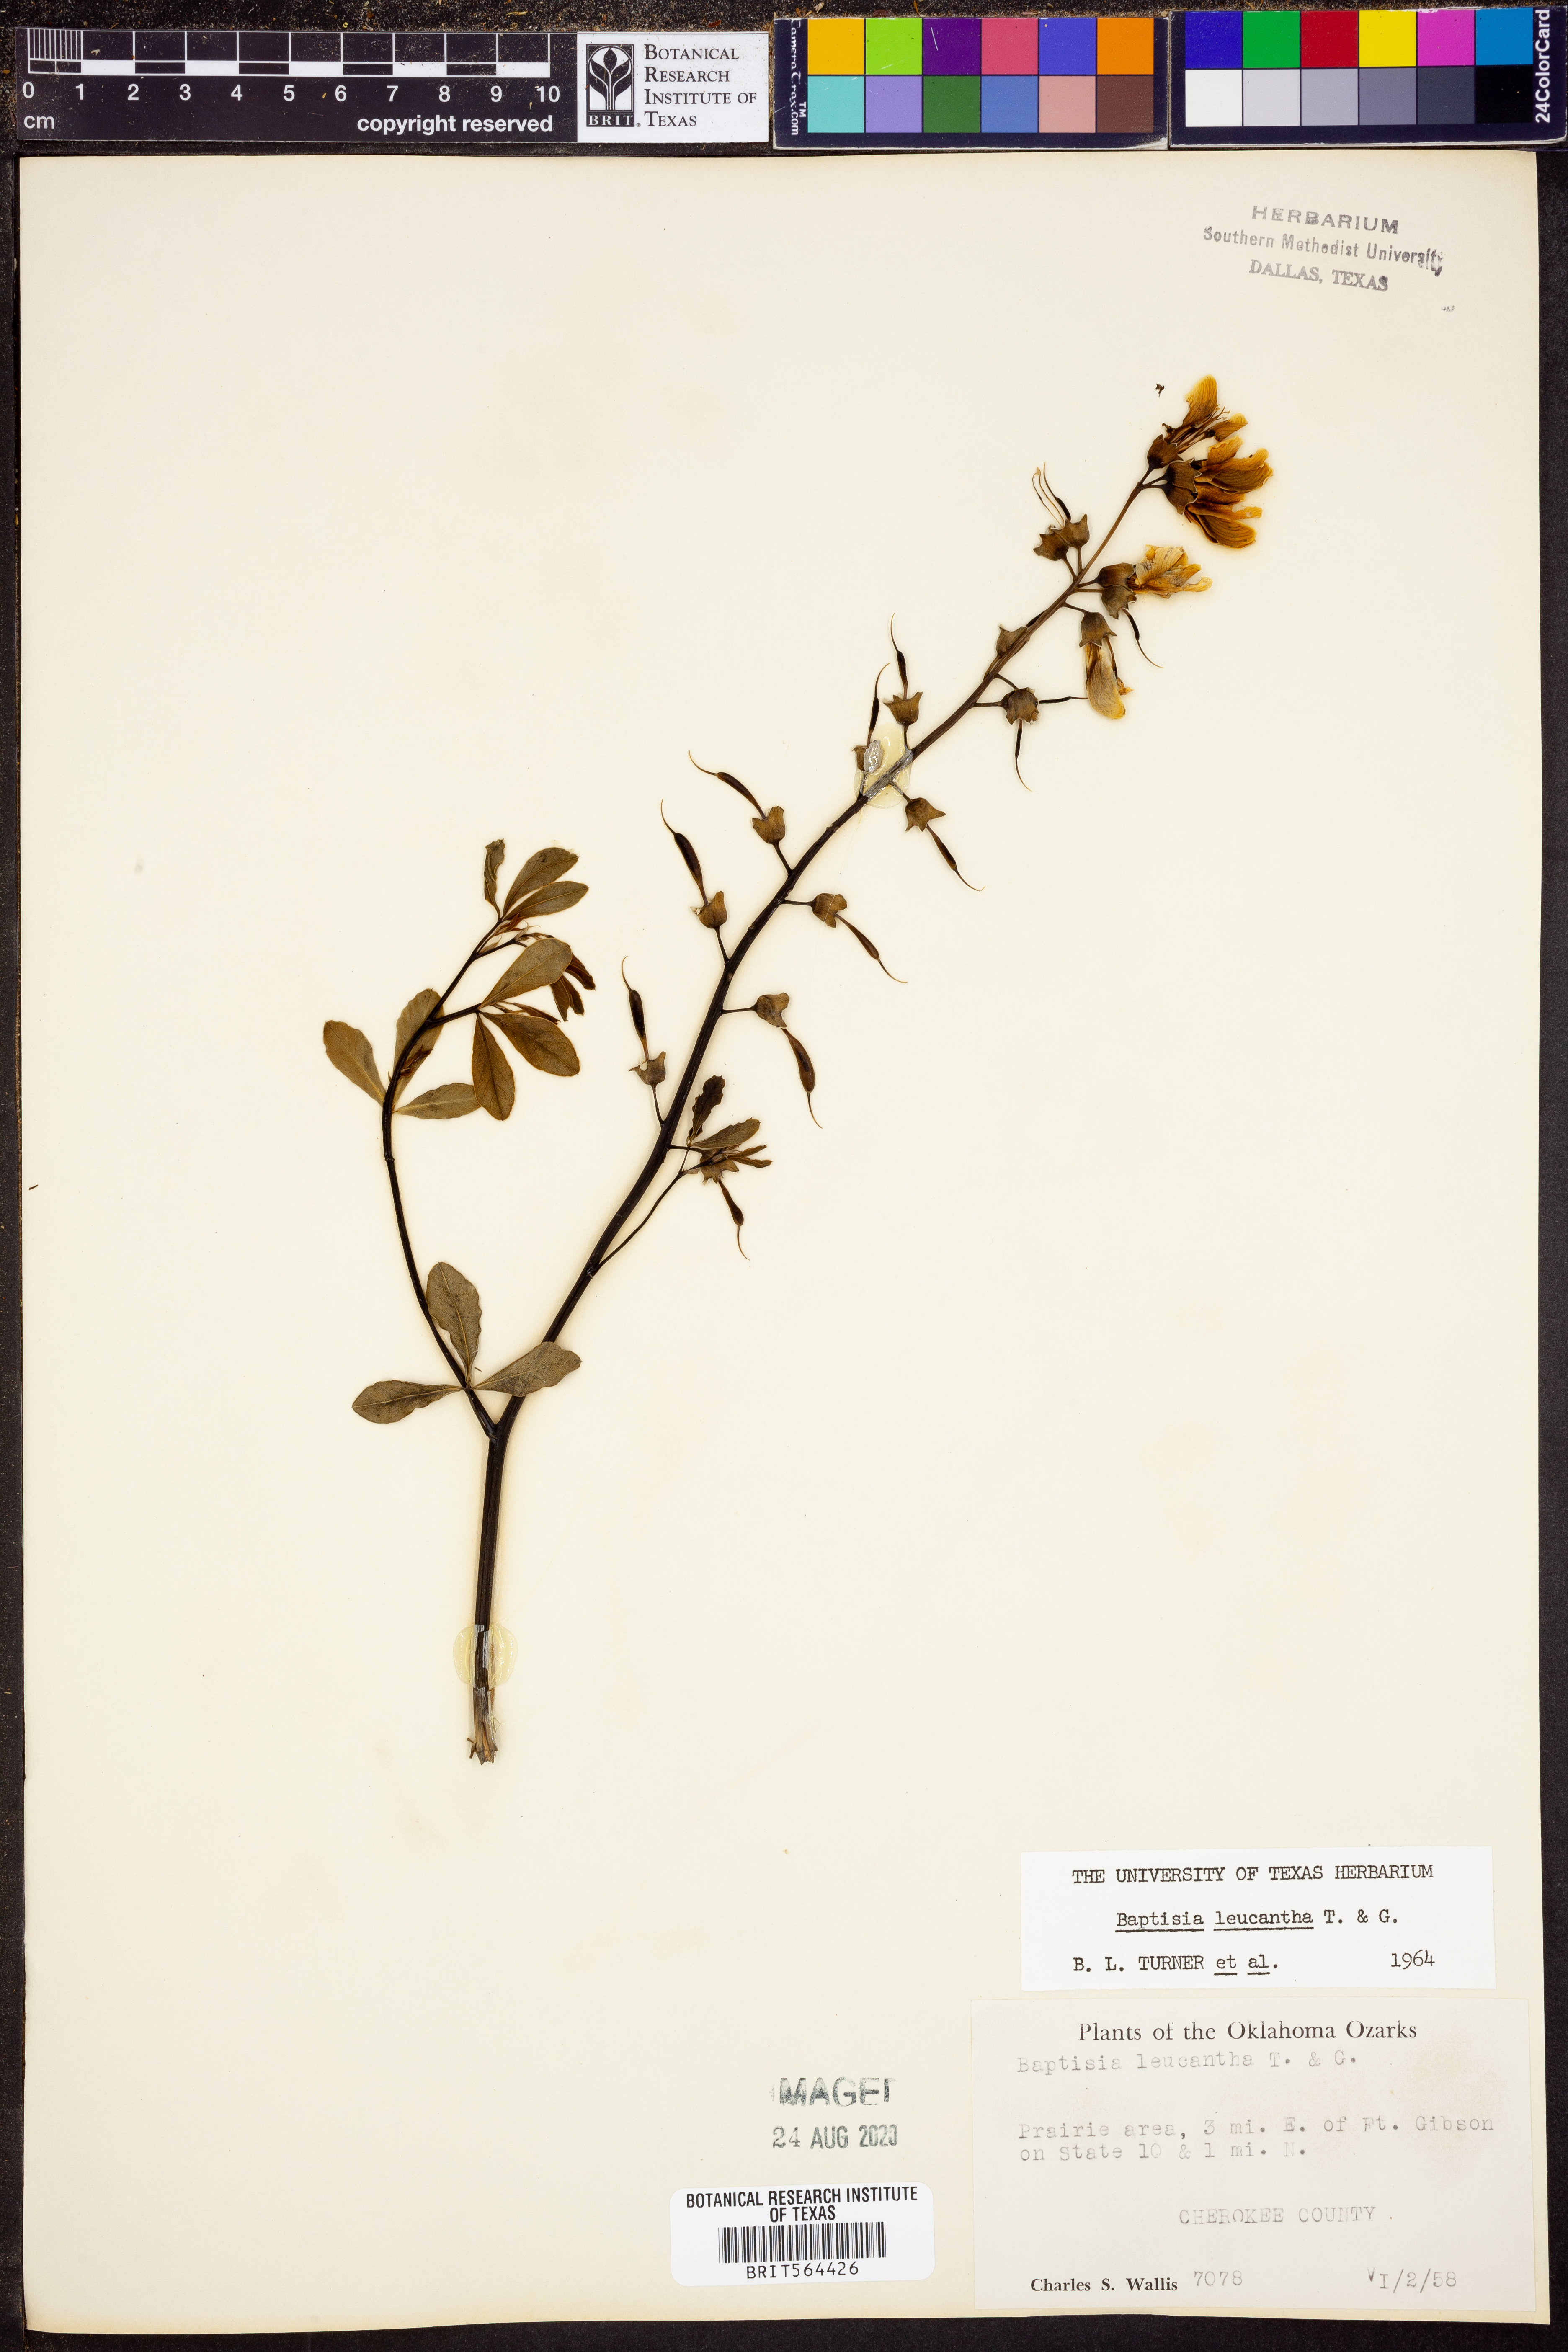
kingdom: Plantae
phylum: Tracheophyta
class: Magnoliopsida
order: Fabales
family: Fabaceae
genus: Baptisia
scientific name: Baptisia alba
